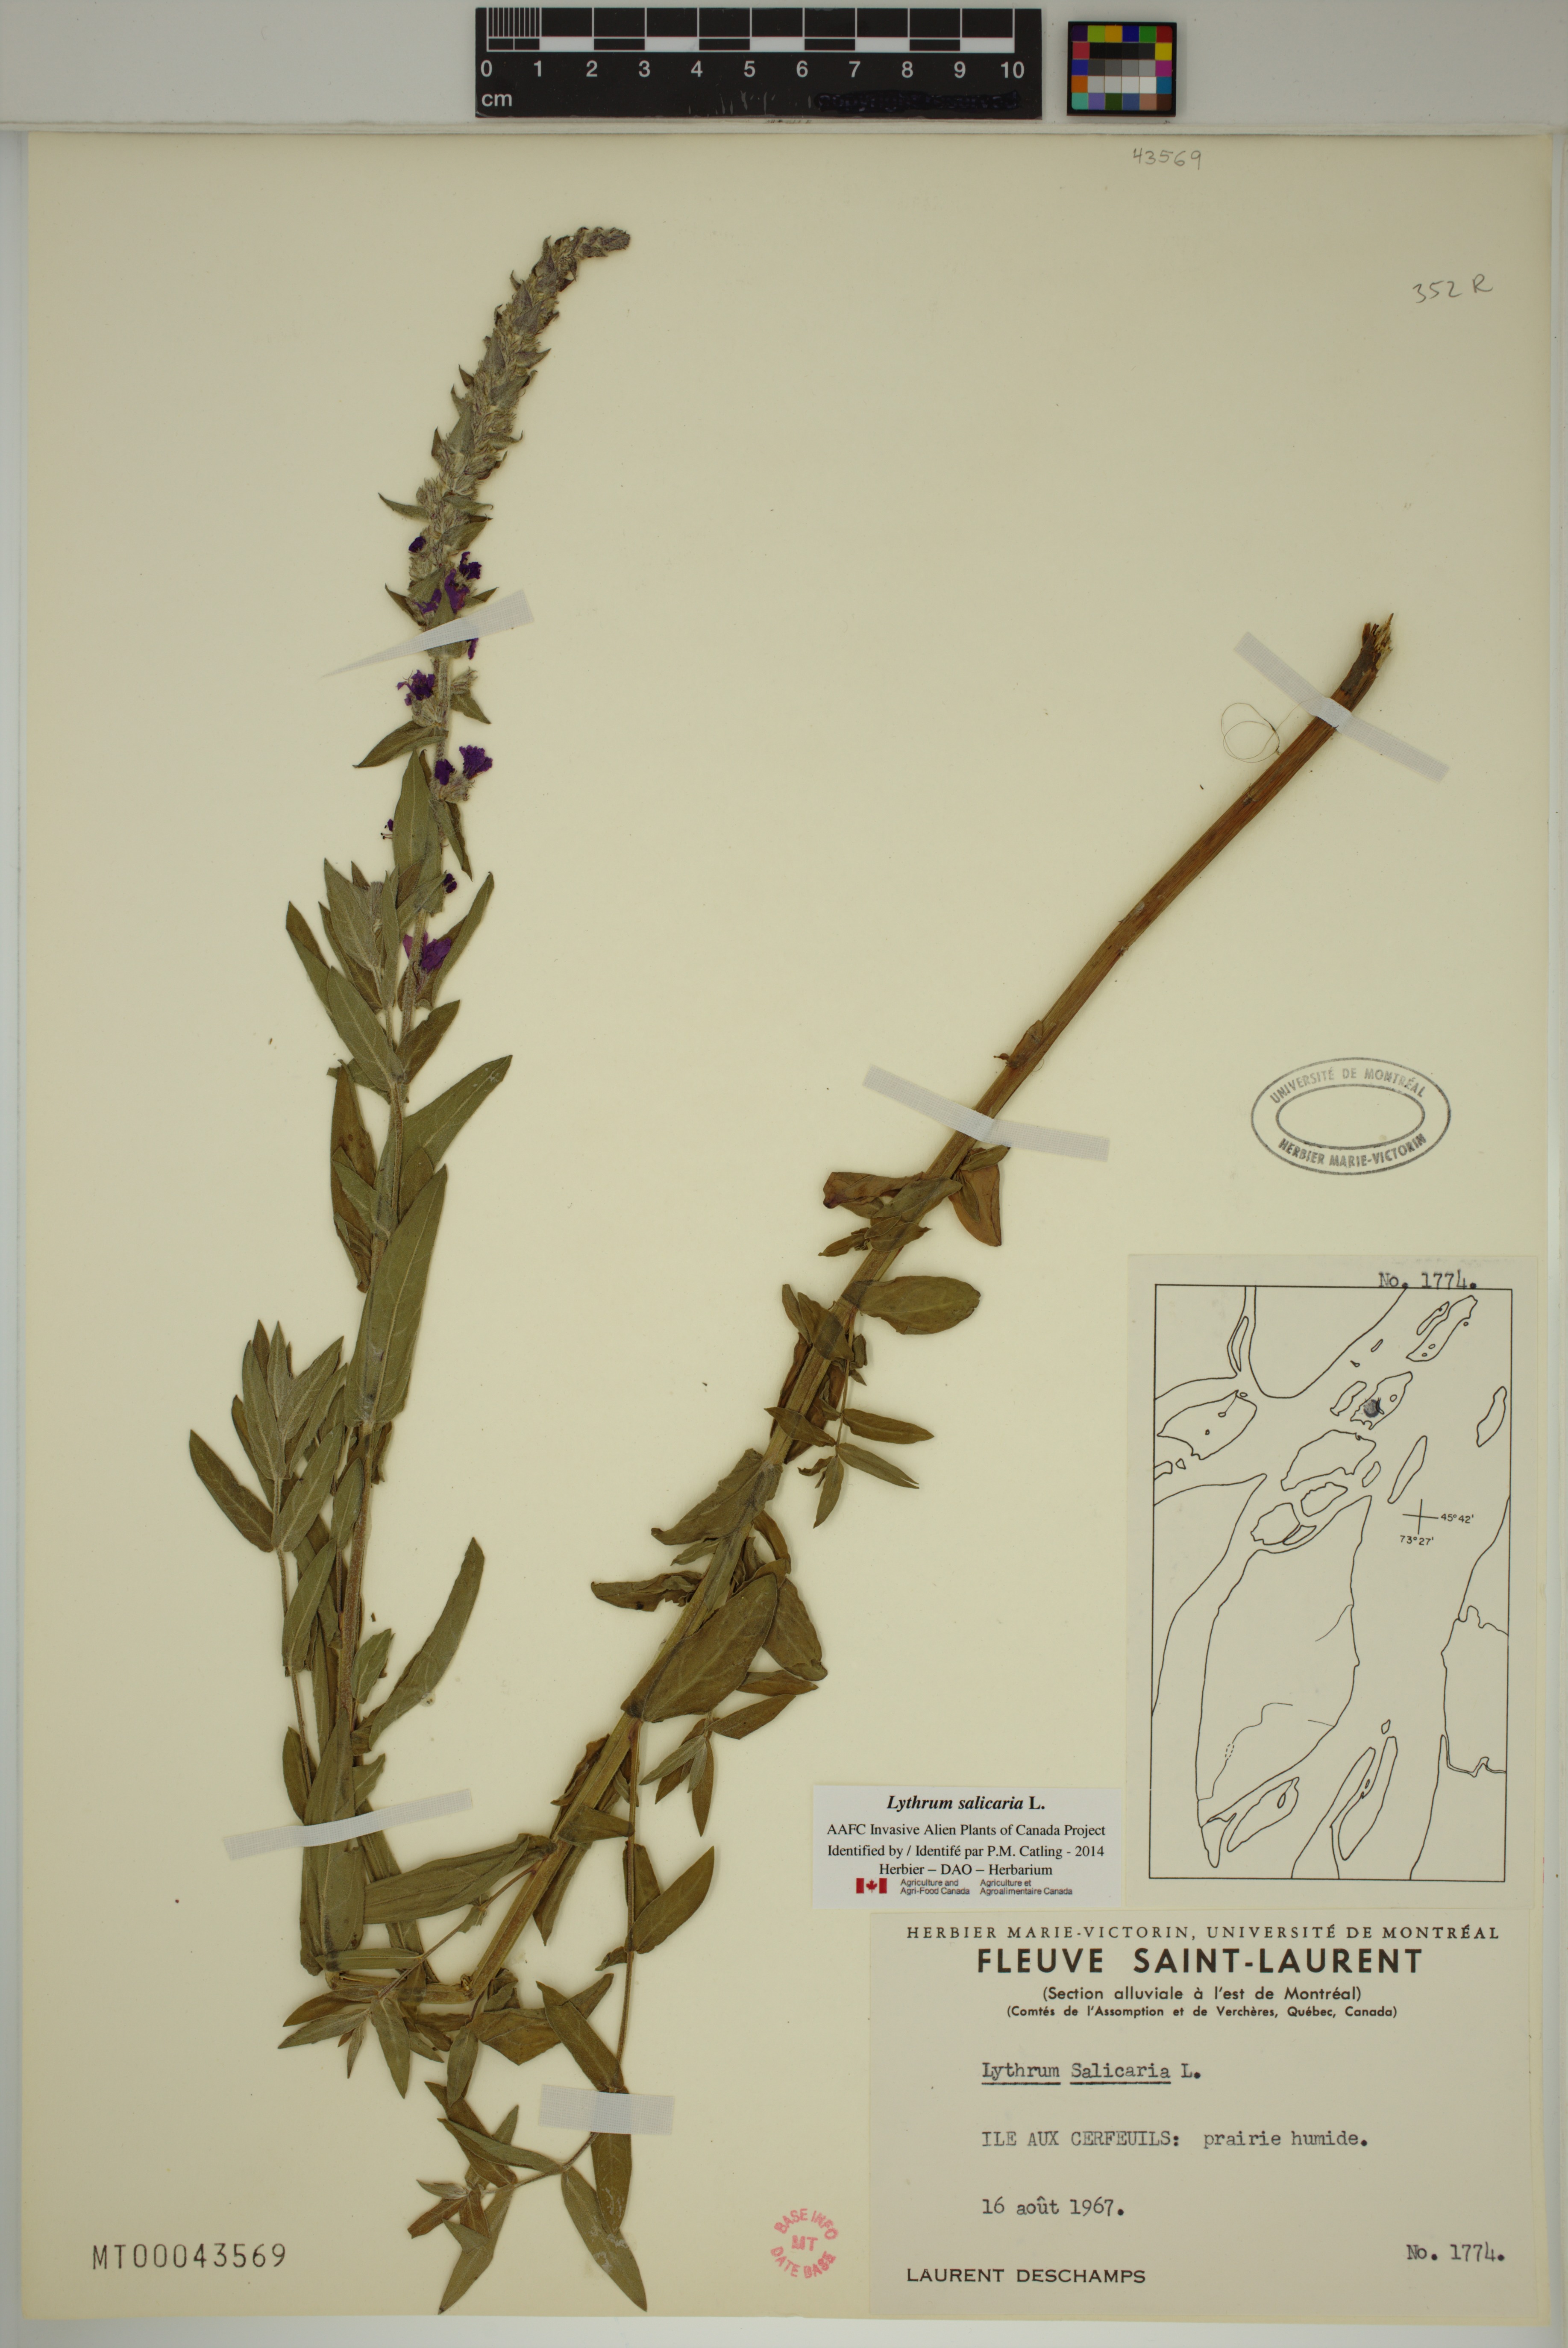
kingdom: Plantae
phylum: Tracheophyta
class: Magnoliopsida
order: Myrtales
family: Lythraceae
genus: Lythrum
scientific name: Lythrum salicaria
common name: Purple loosestrife
